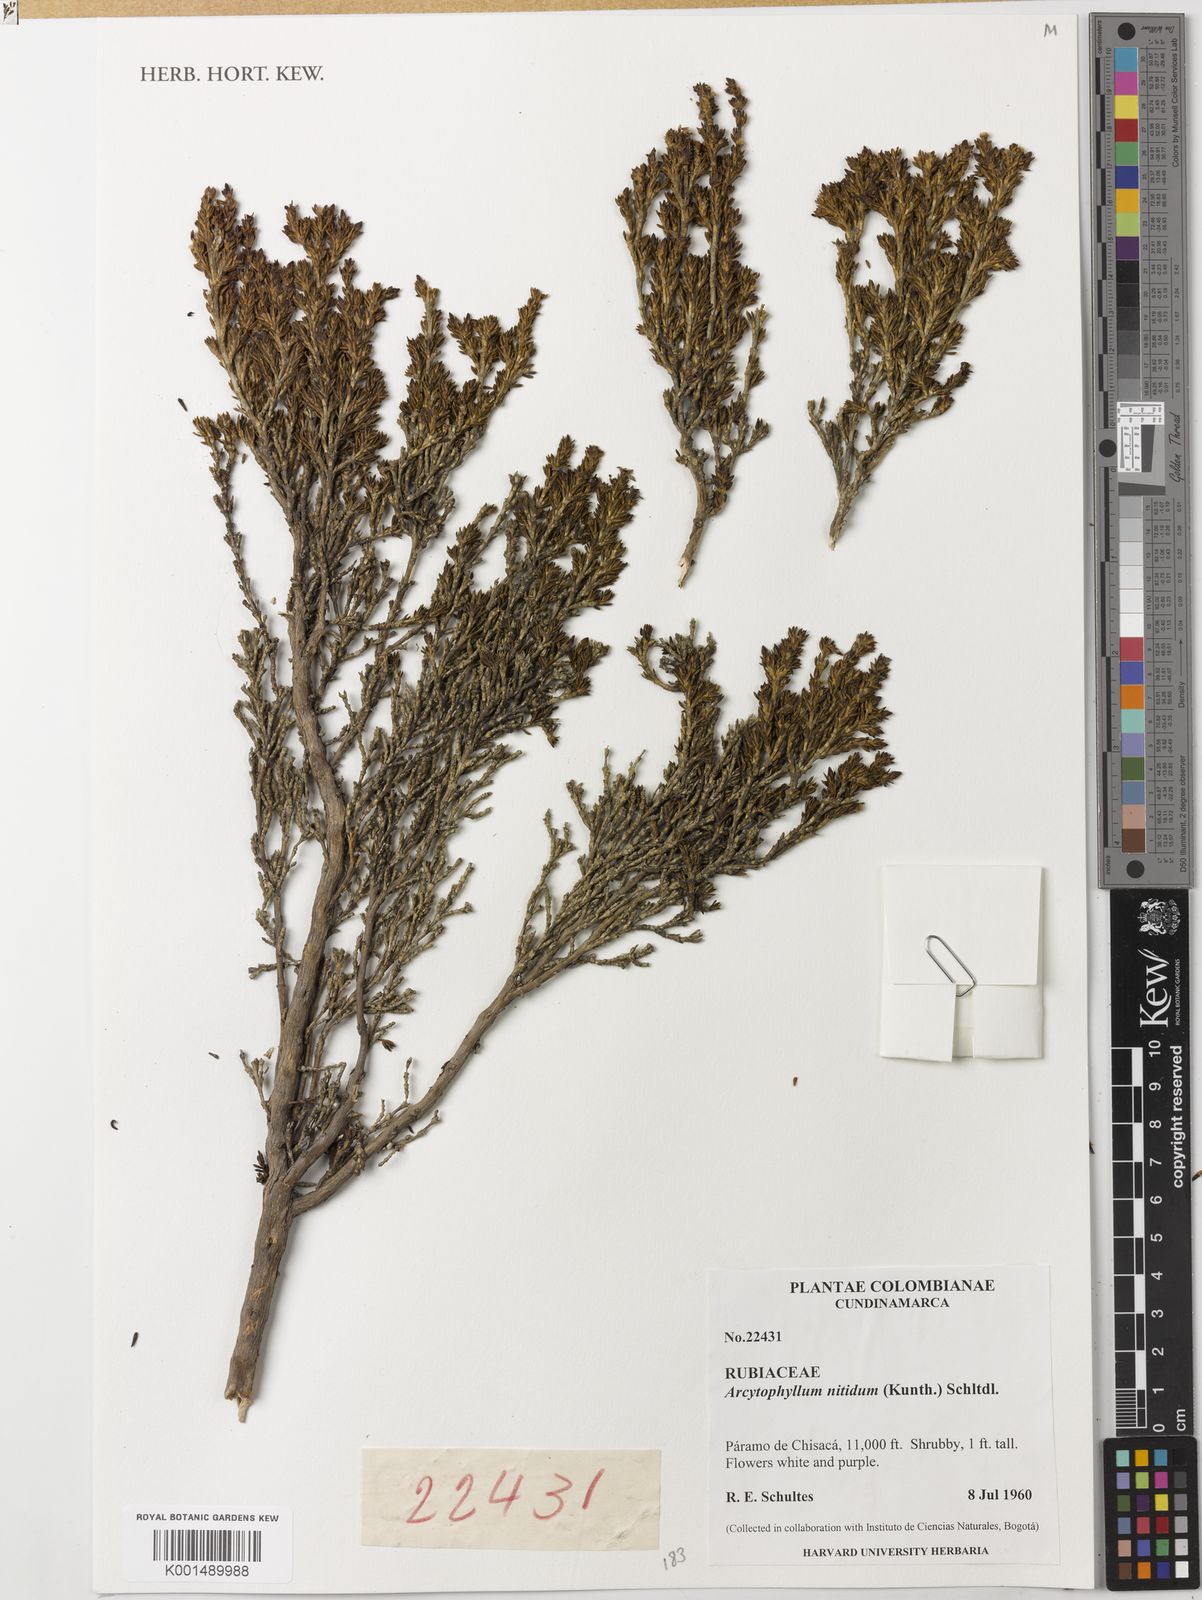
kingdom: Plantae
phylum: Tracheophyta
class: Magnoliopsida
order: Gentianales
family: Rubiaceae
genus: Arcytophyllum
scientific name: Arcytophyllum nitidum
